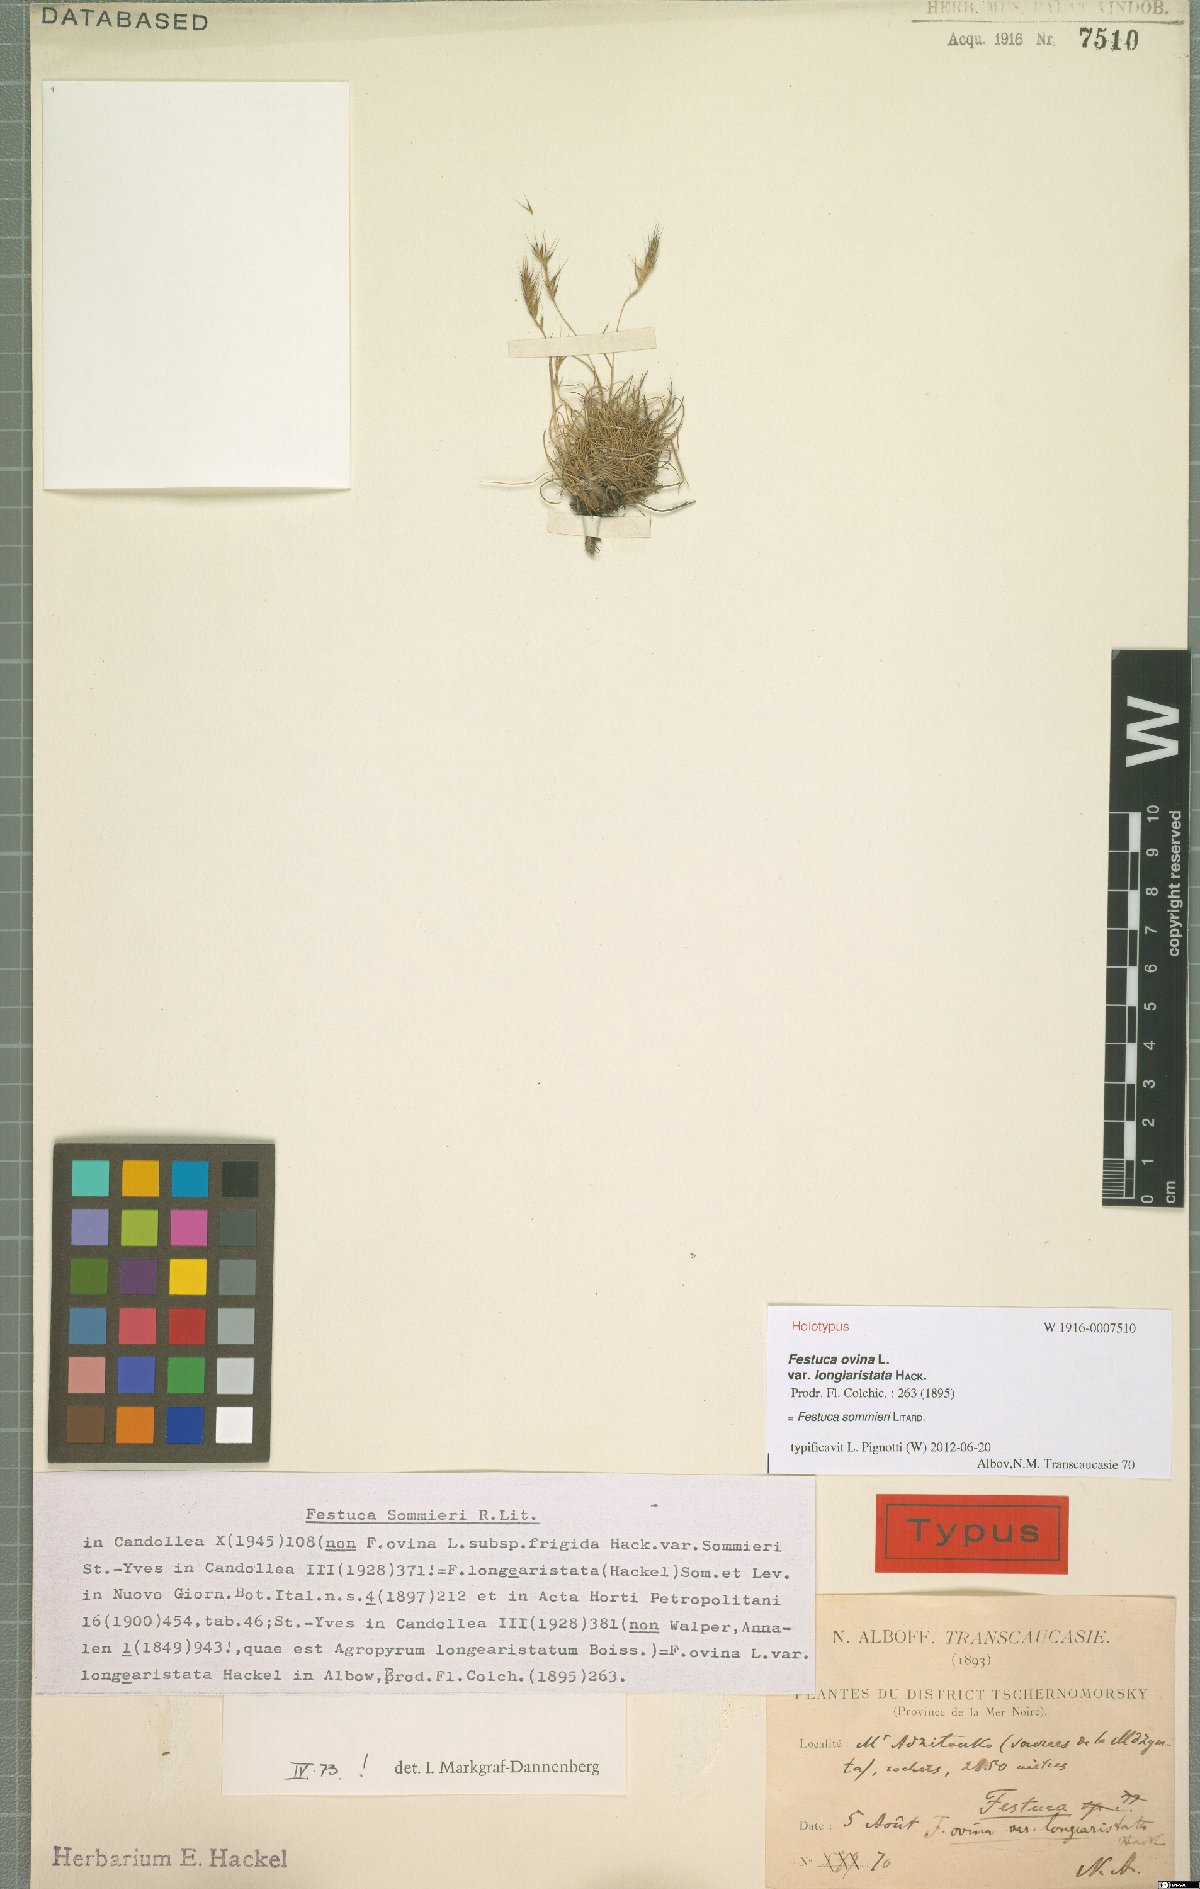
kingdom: Plantae
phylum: Tracheophyta
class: Liliopsida
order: Poales
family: Poaceae
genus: Festuca
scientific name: Festuca sommieri
